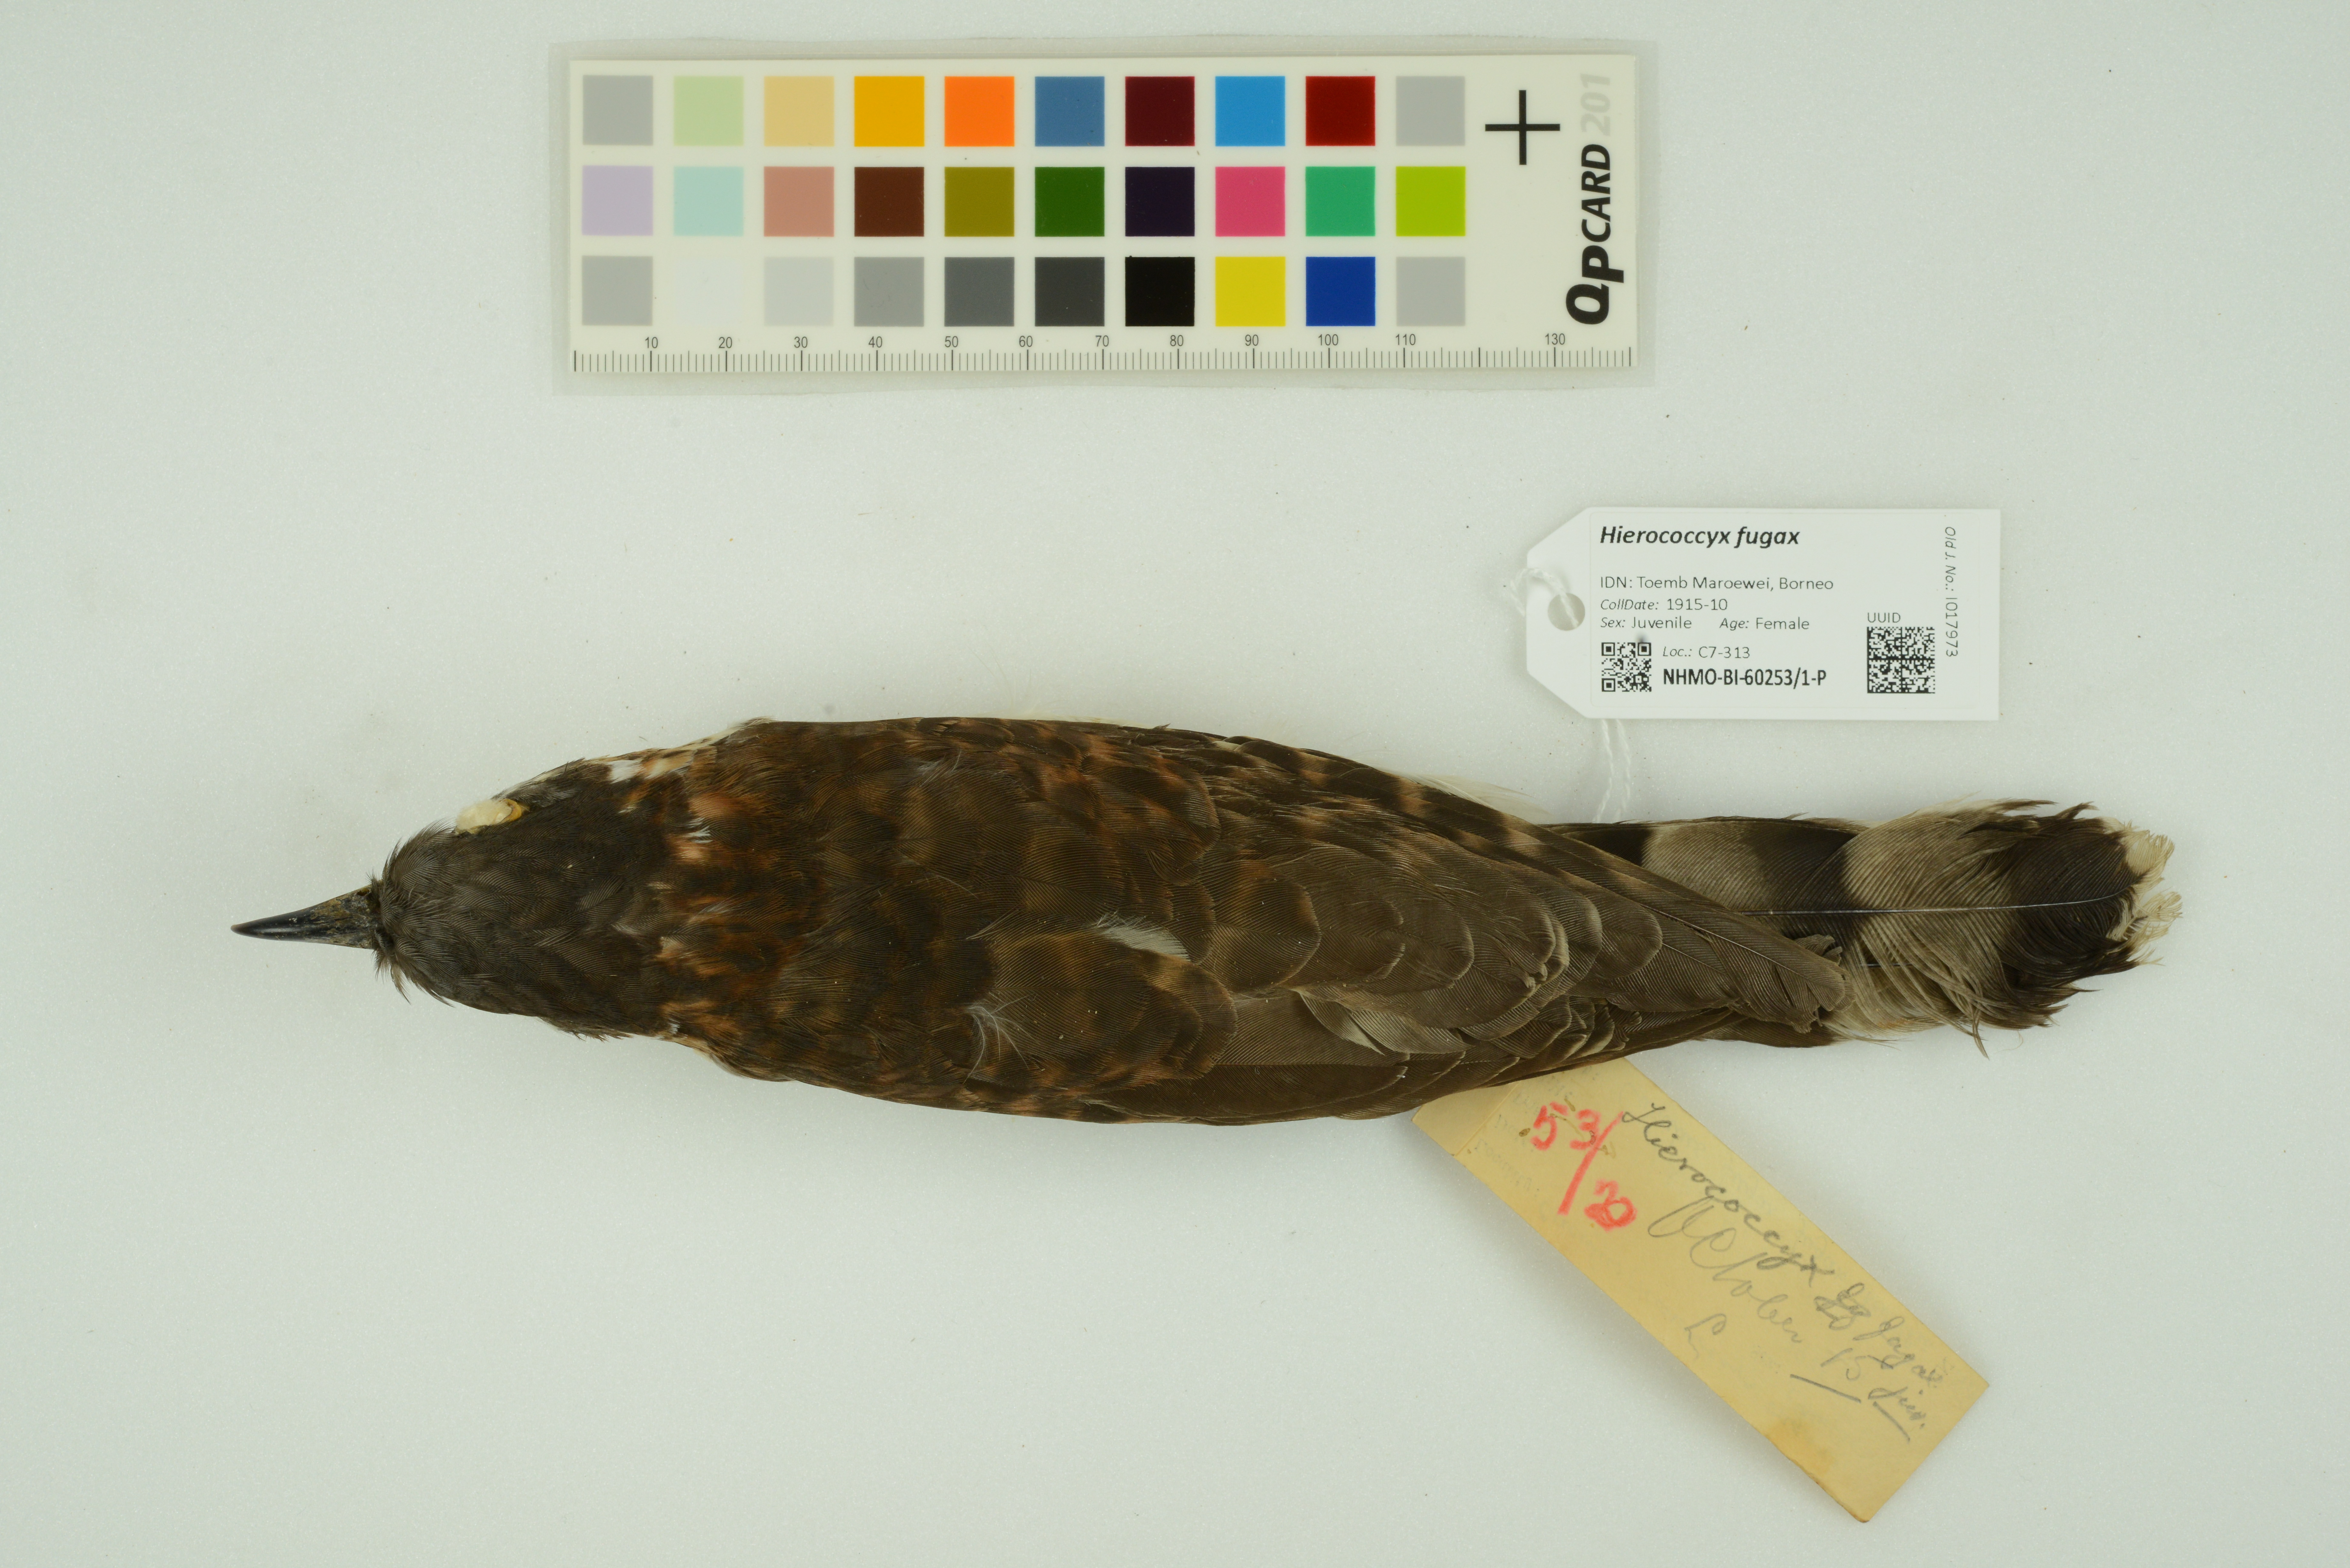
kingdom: Animalia
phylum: Chordata
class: Aves
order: Cuculiformes
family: Cuculidae
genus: Cuculus
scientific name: Cuculus fugax
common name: Hodgson's hawk-cuckoo
